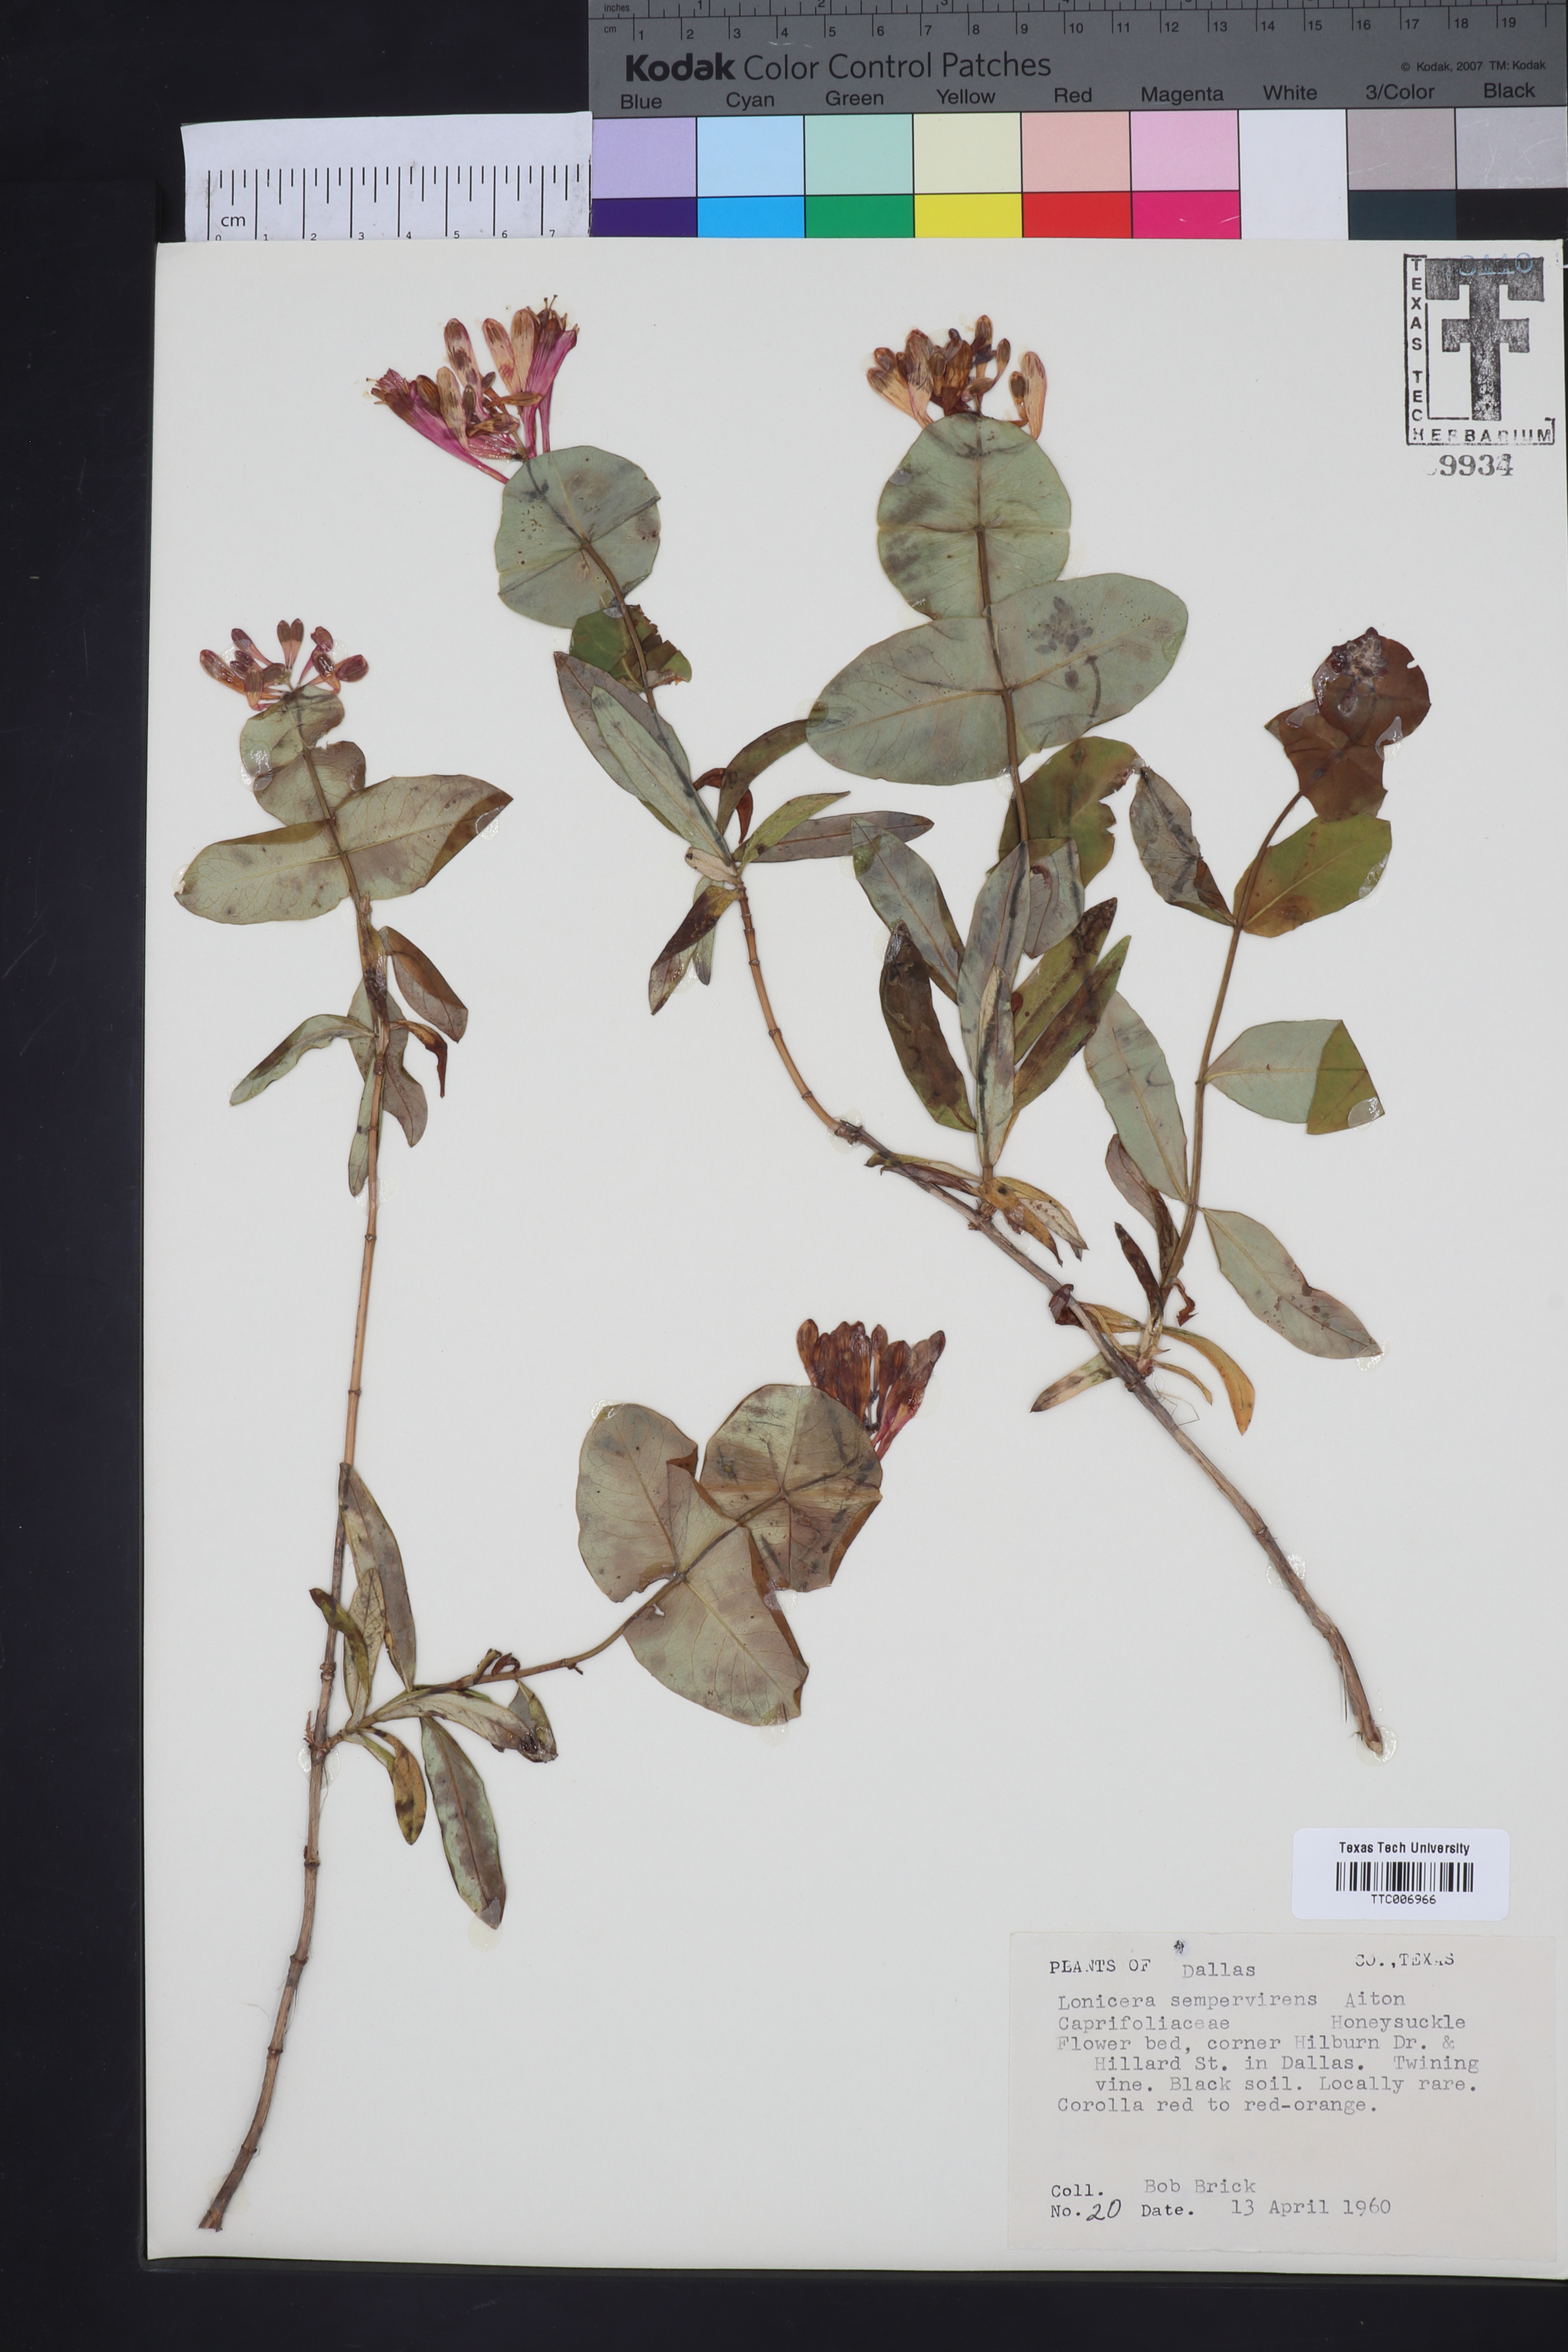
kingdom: Plantae
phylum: Tracheophyta
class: Magnoliopsida
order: Dipsacales
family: Caprifoliaceae
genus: Lonicera
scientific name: Lonicera sempervirens
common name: Coral honeysuckle
